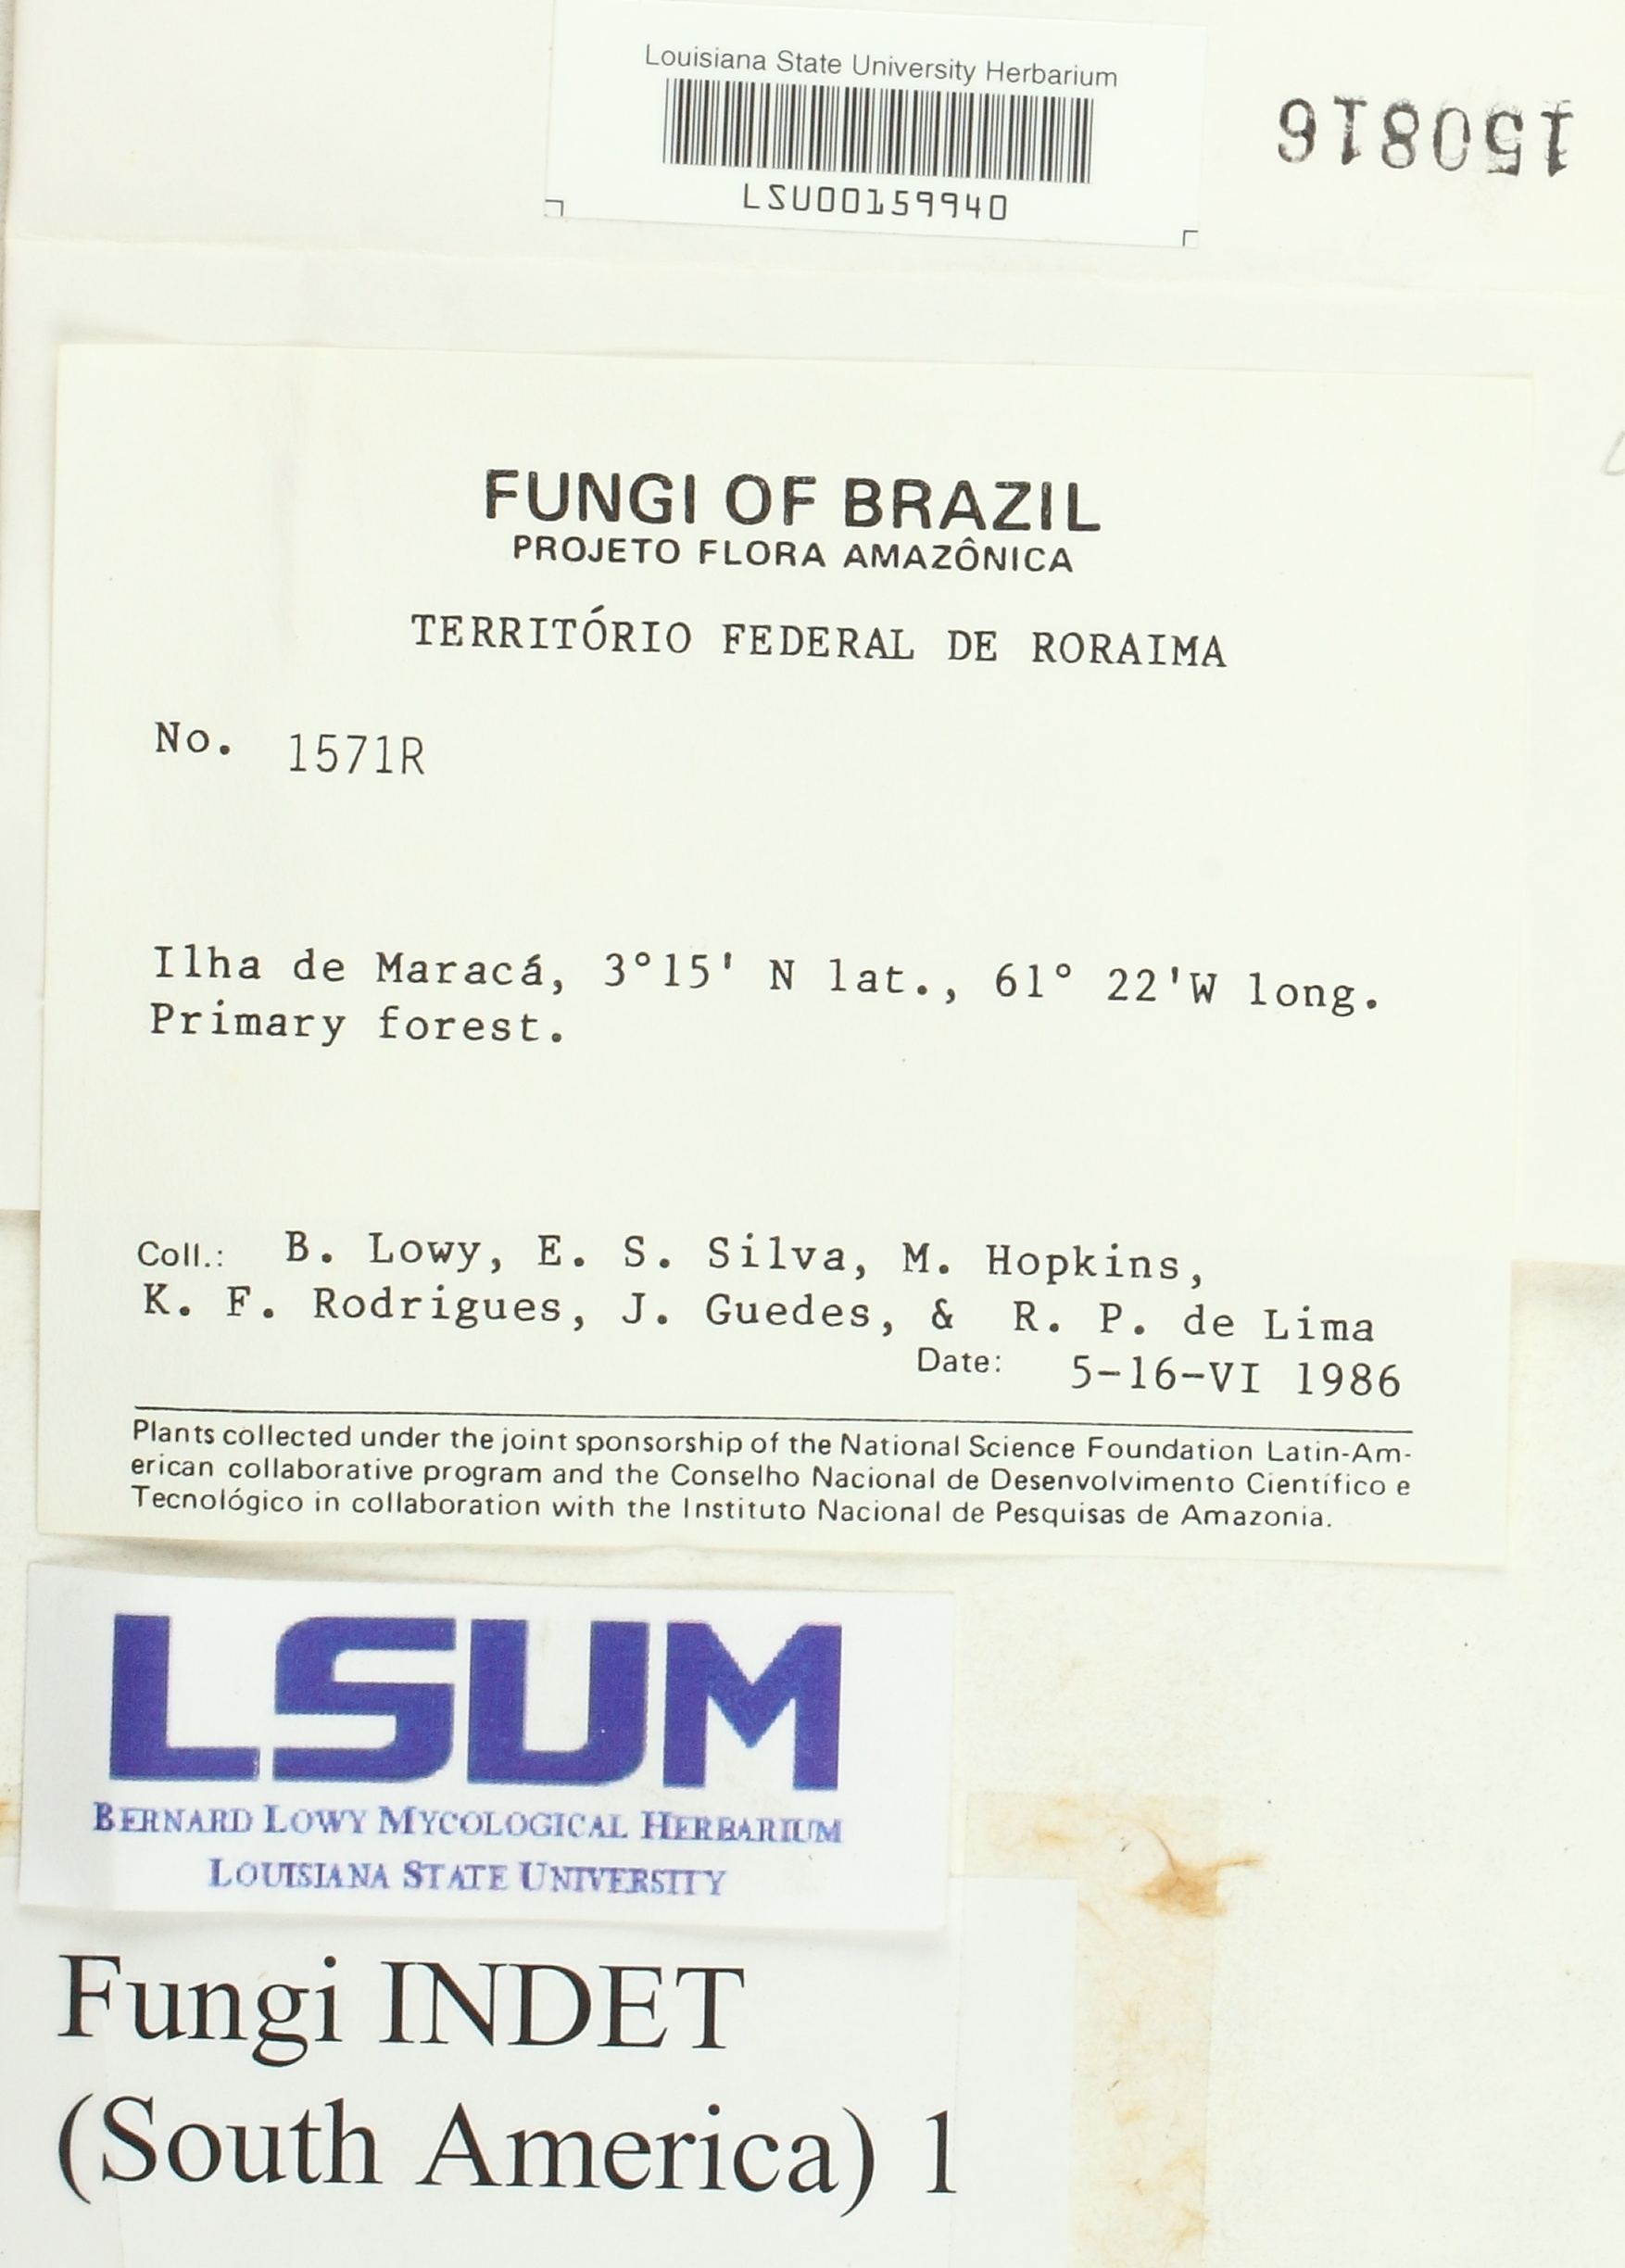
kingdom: Fungi
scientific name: Fungi
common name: Fungi
